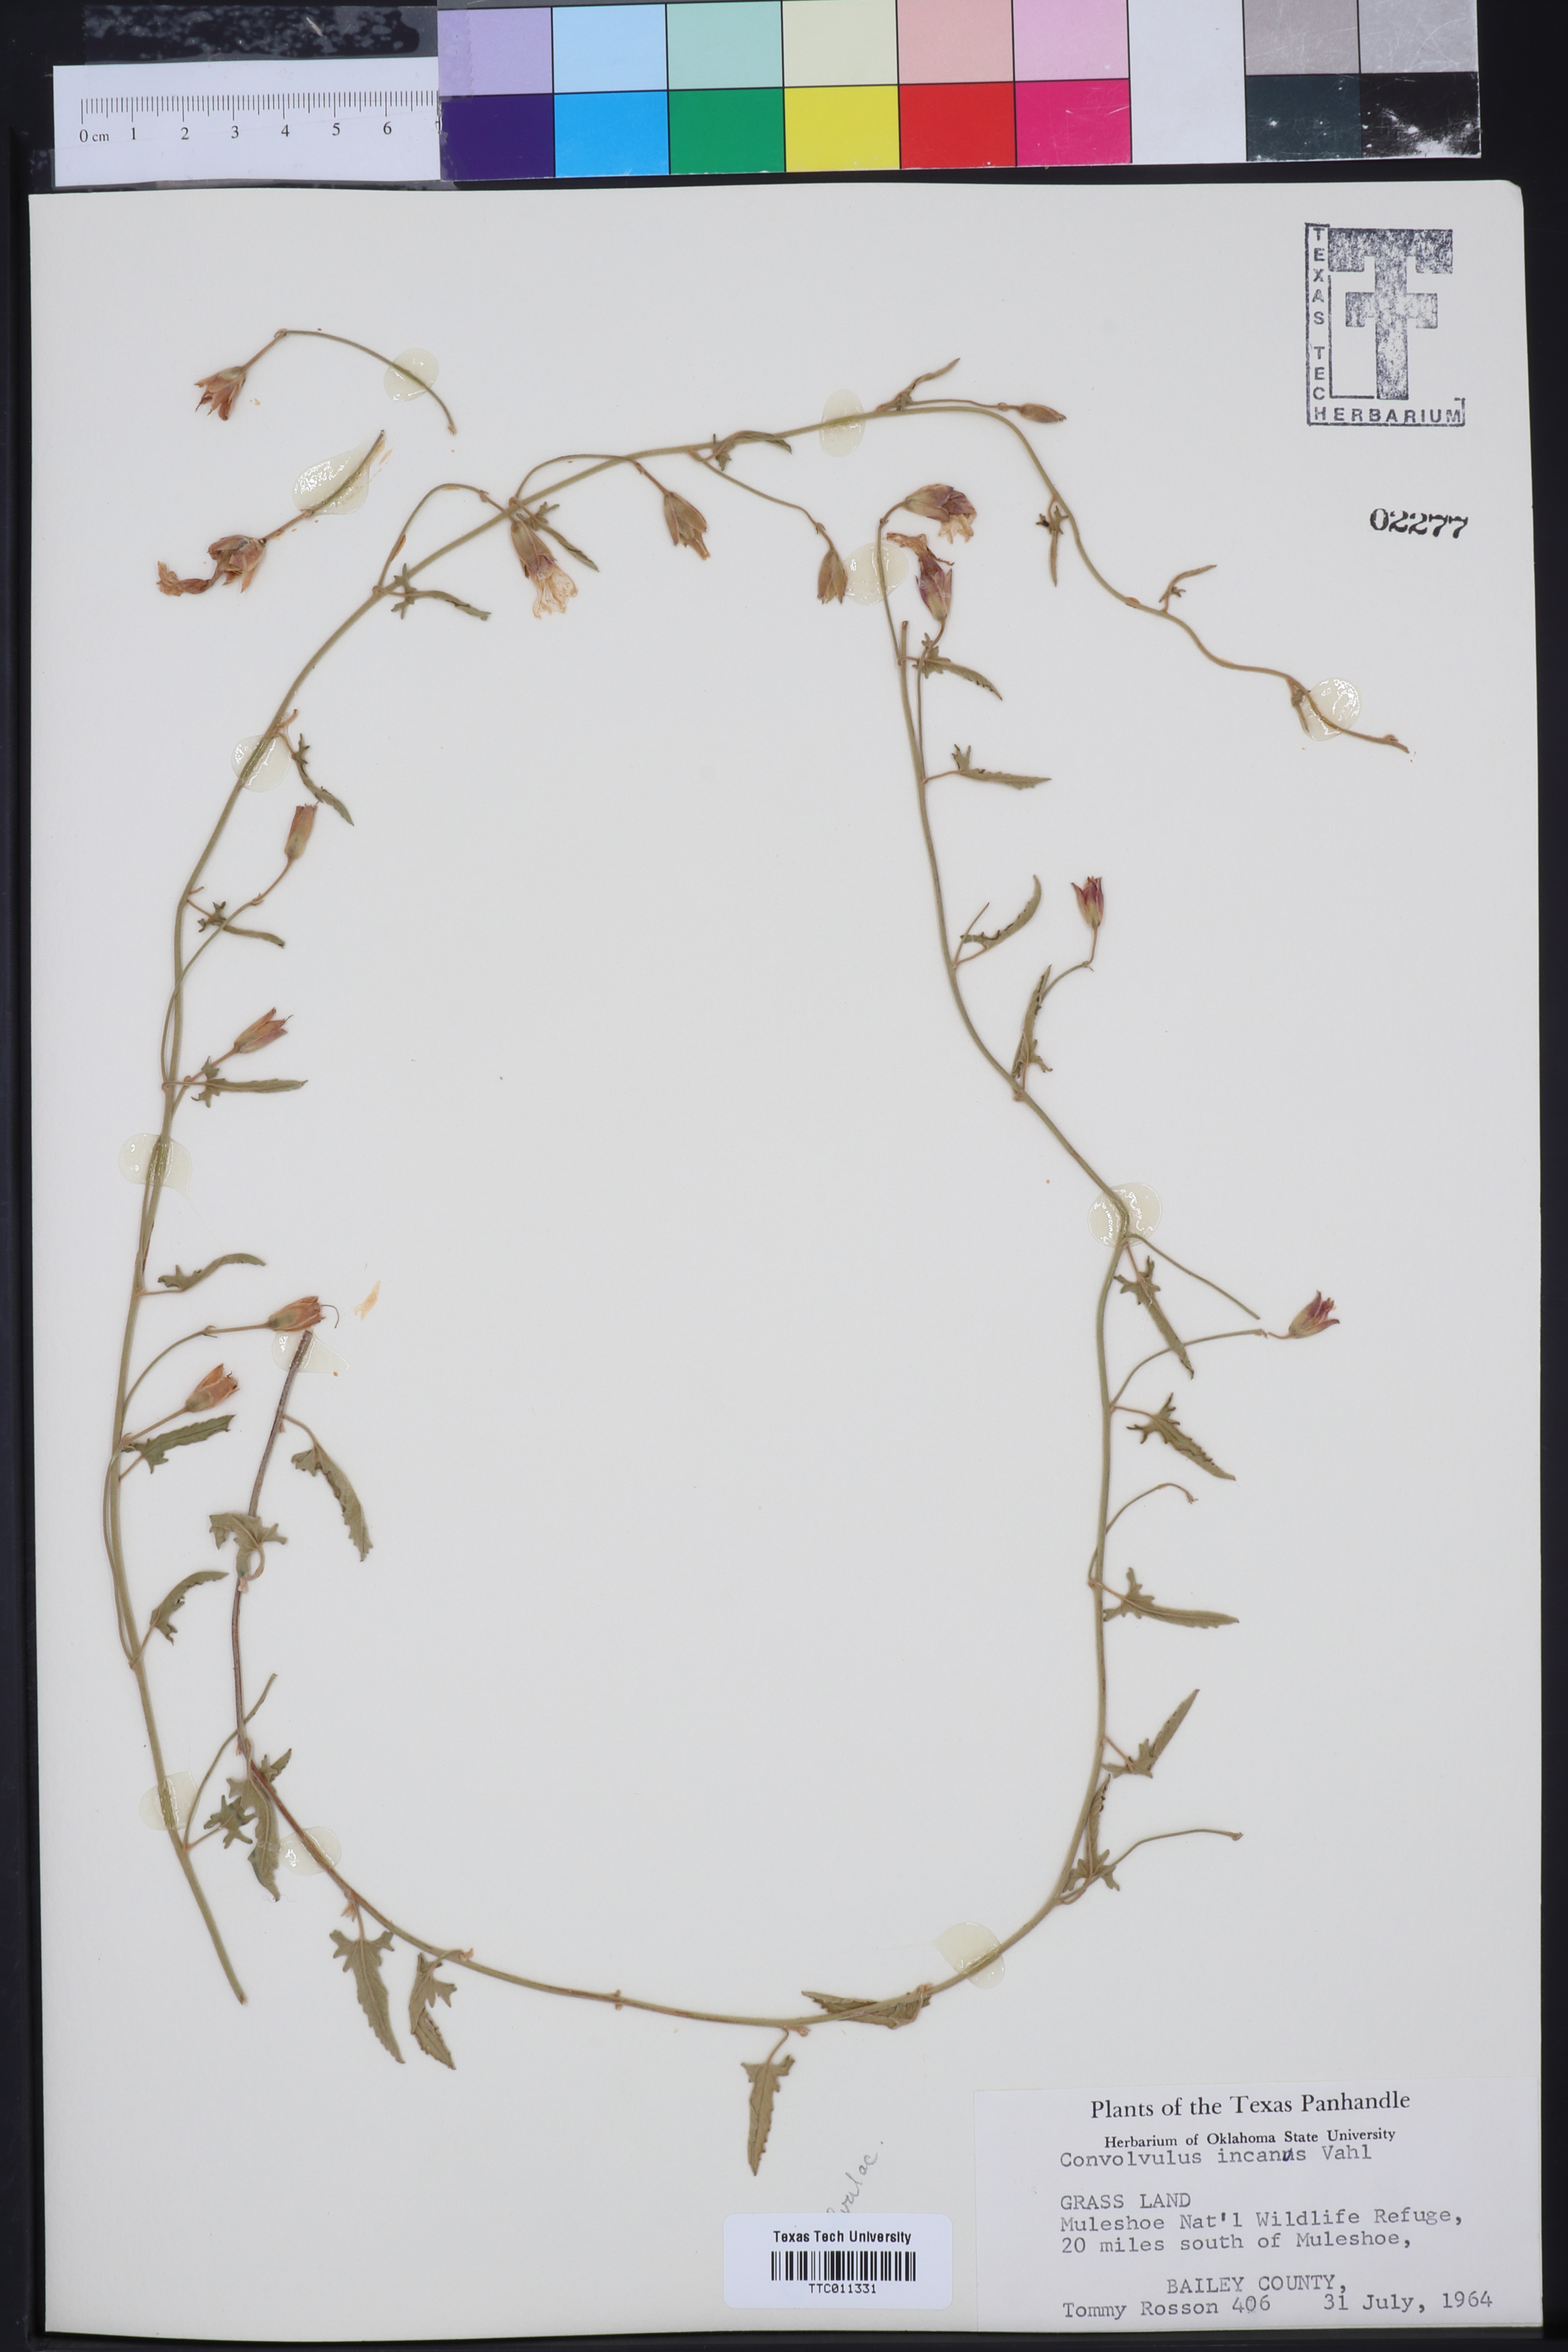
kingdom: Plantae
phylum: Tracheophyta
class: Magnoliopsida
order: Solanales
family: Convolvulaceae
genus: Convolvulus
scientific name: Convolvulus hermanniae
